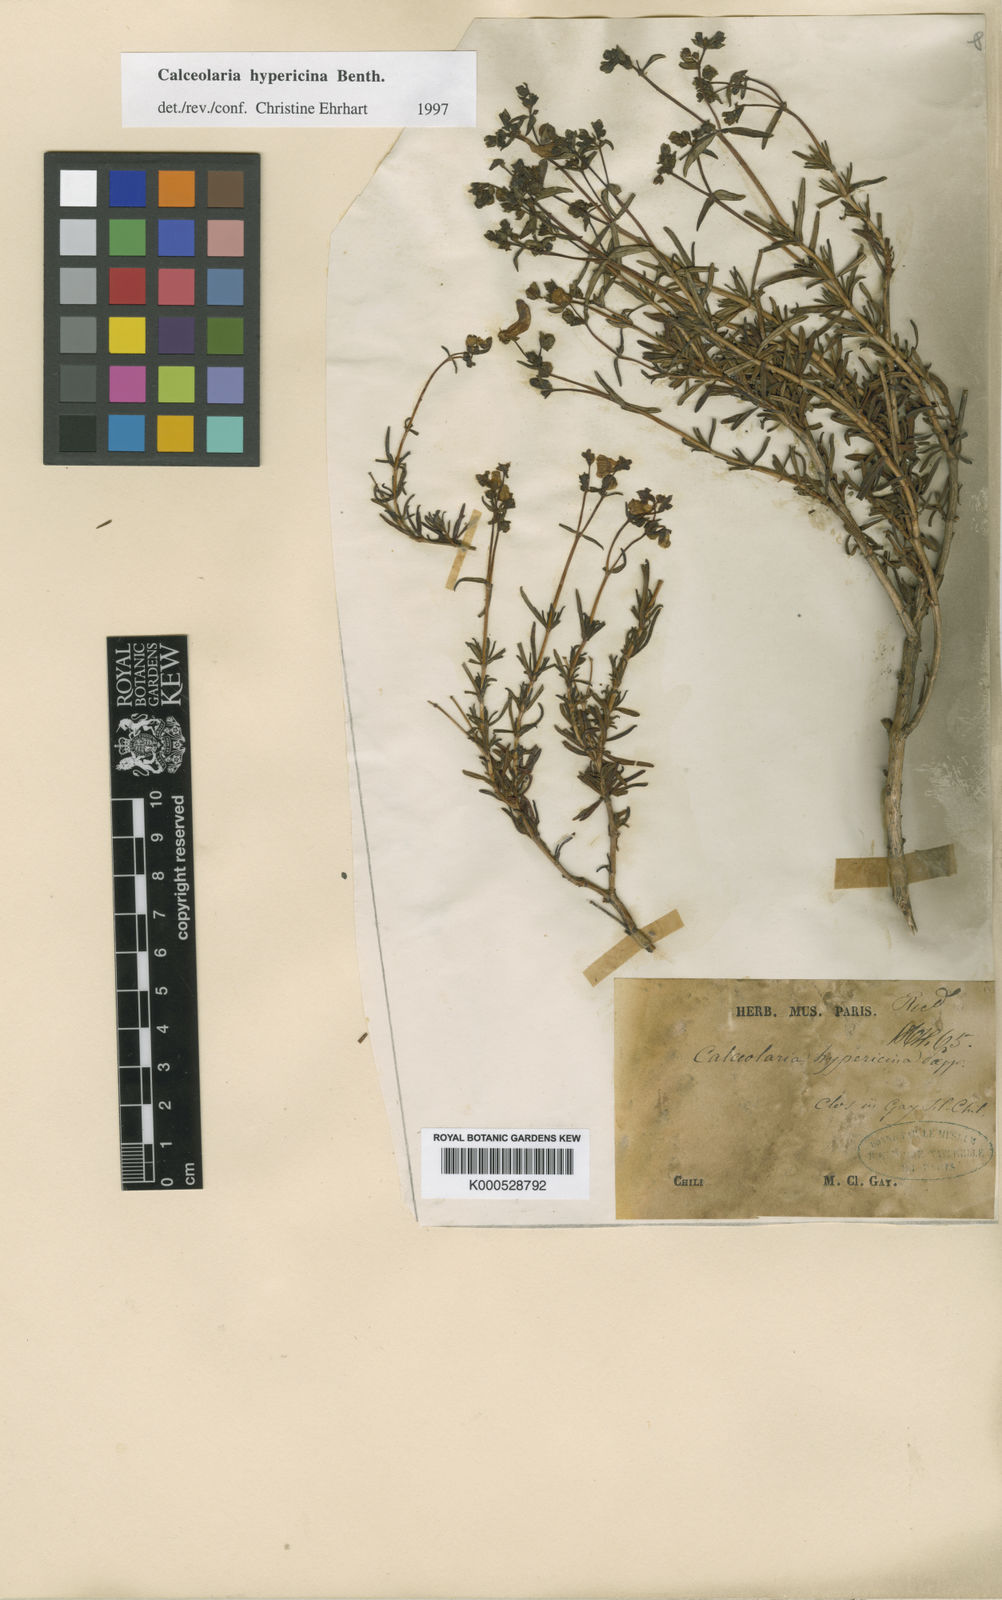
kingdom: Plantae
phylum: Tracheophyta
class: Magnoliopsida
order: Lamiales
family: Calceolariaceae
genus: Calceolaria
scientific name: Calceolaria hypericina
